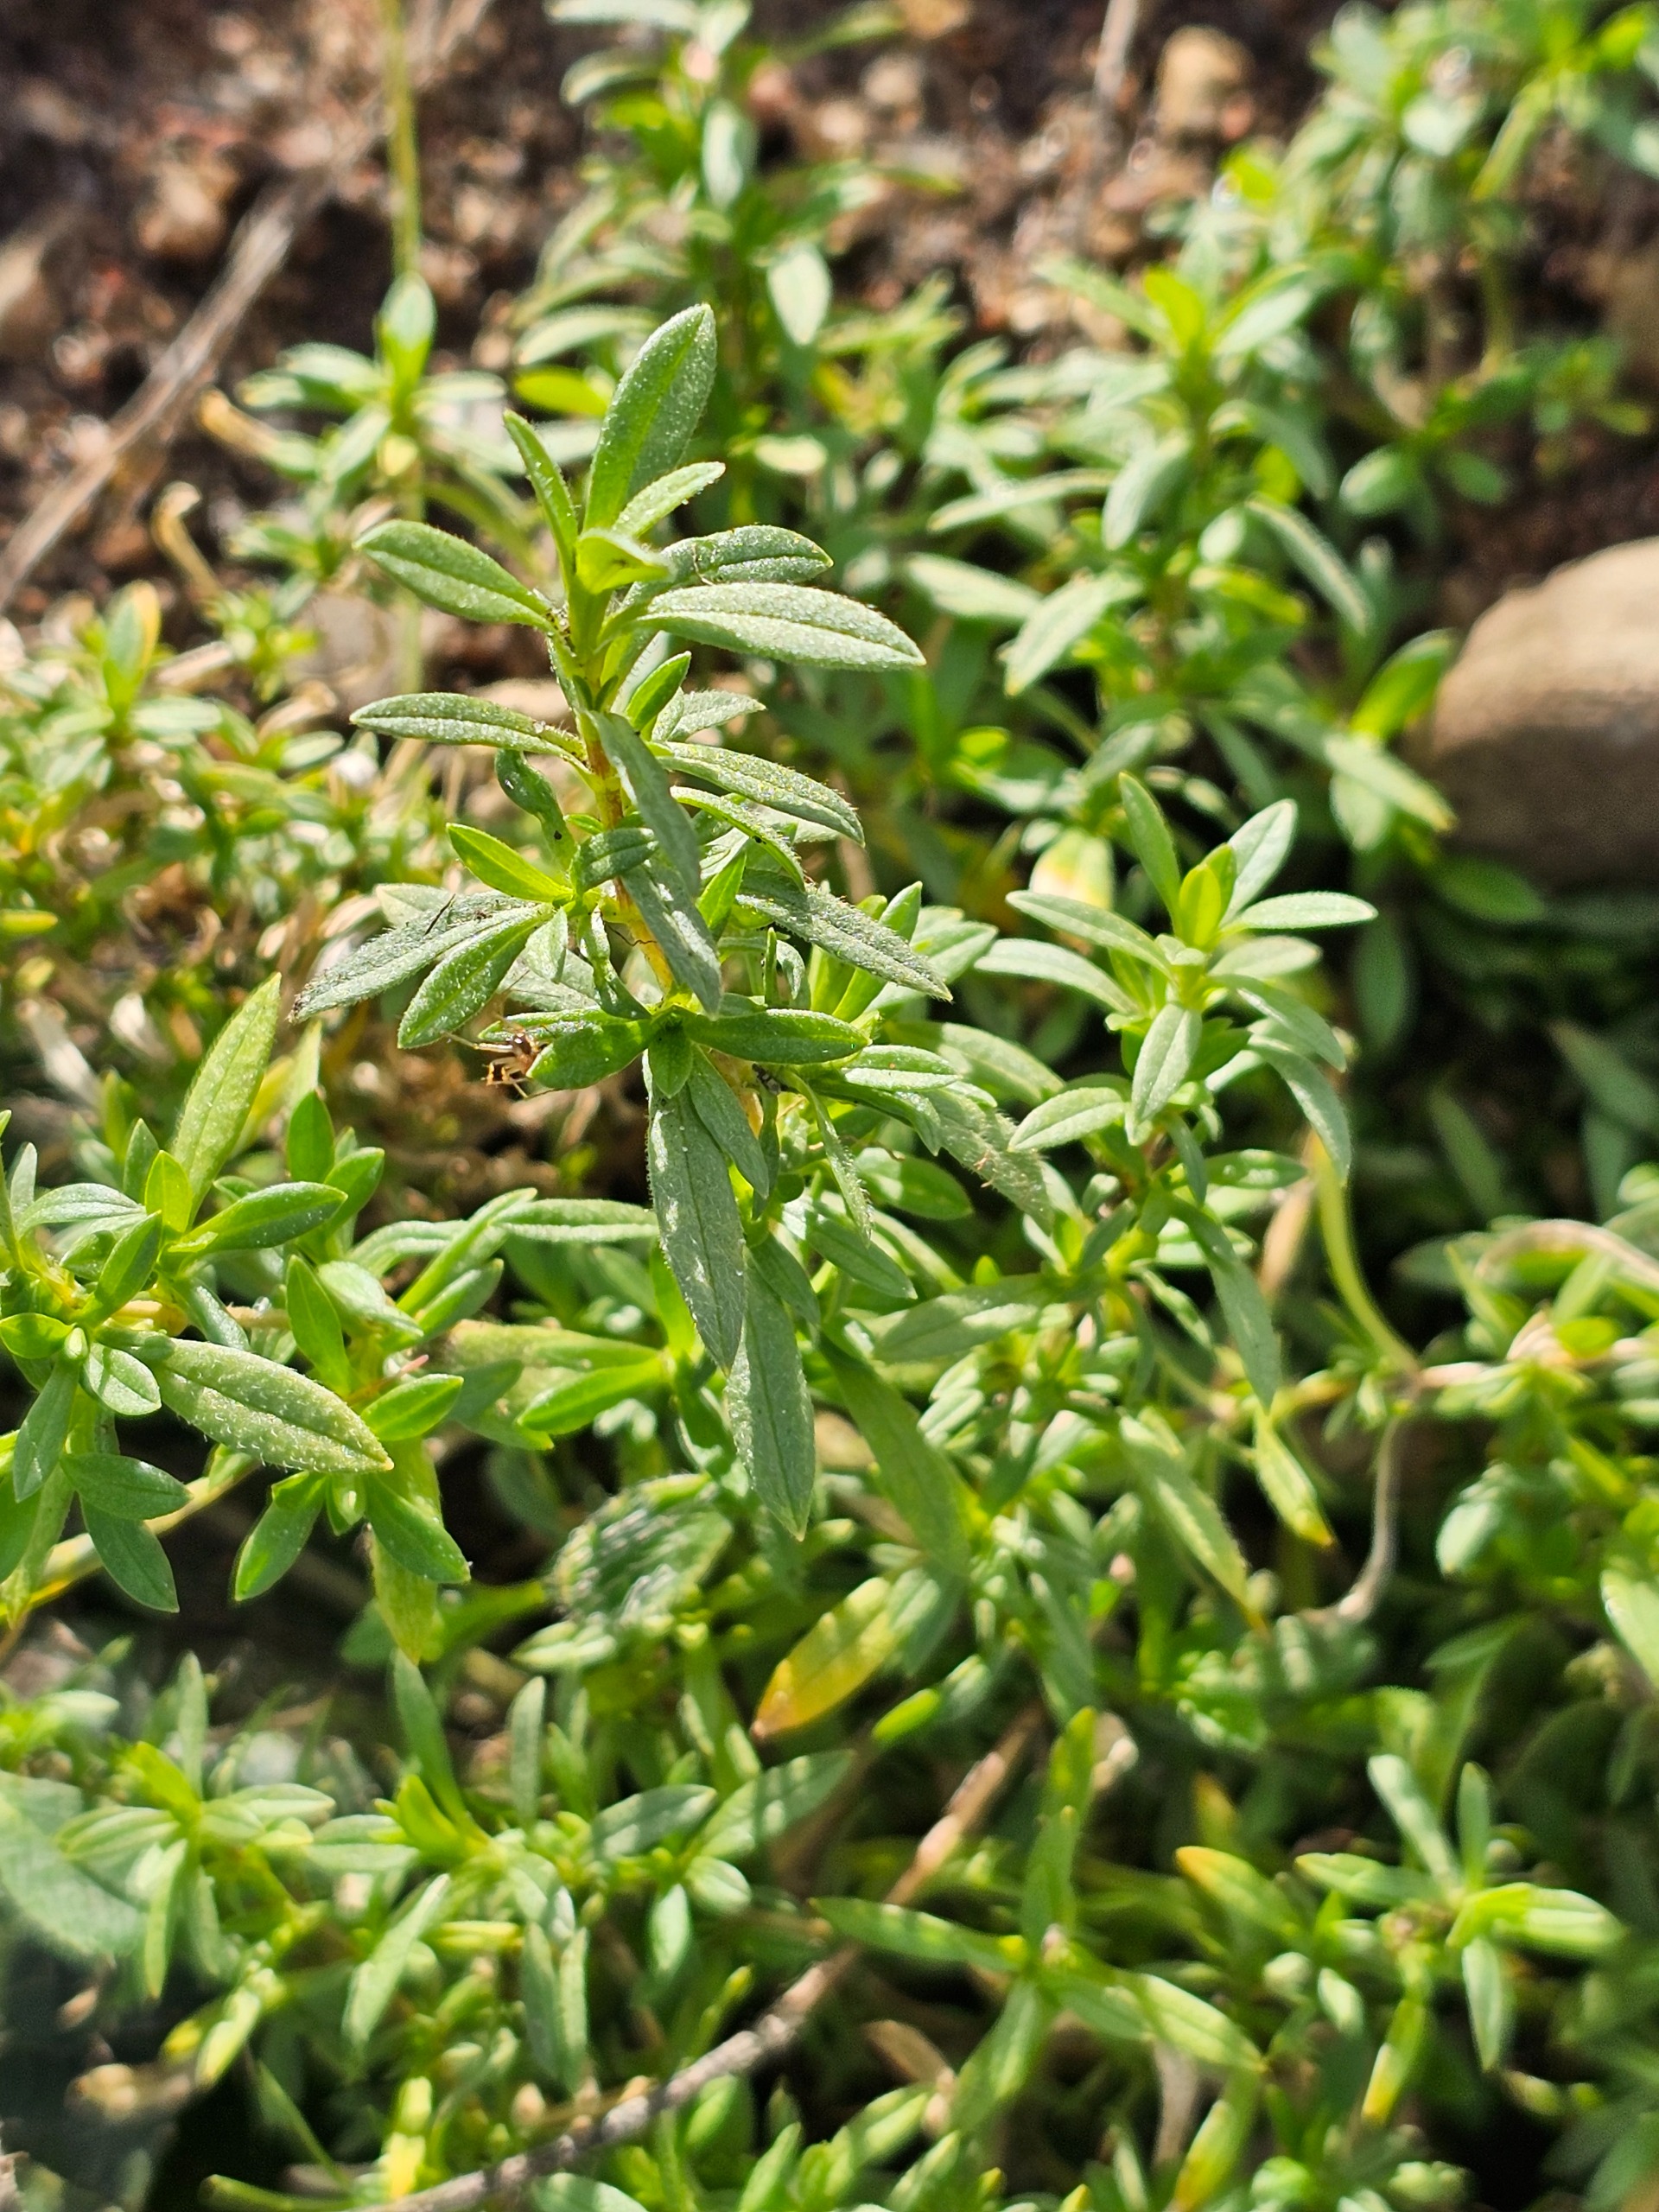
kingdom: Plantae
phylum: Tracheophyta
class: Magnoliopsida
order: Caryophyllales
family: Caryophyllaceae
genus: Cerastium
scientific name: Cerastium arvense
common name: Storblomstret hønsetarm
